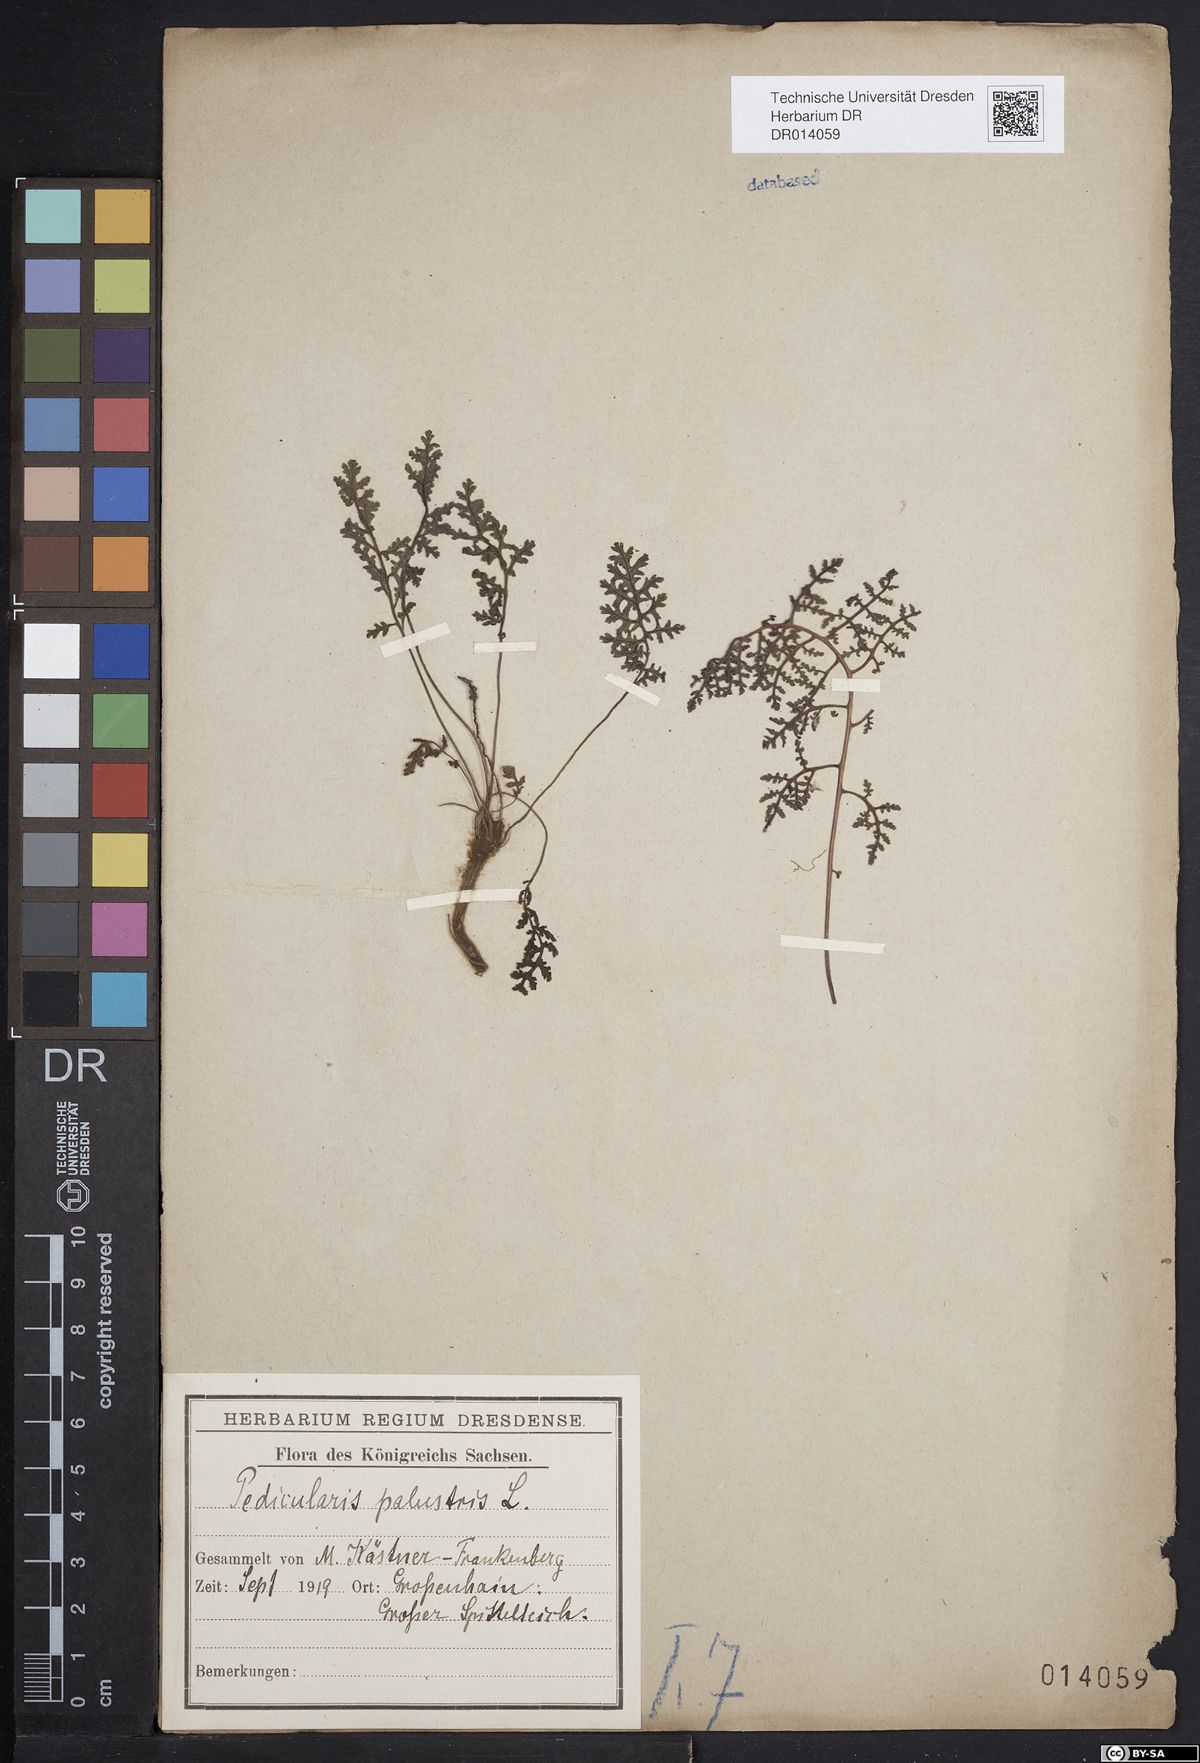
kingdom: Plantae
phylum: Tracheophyta
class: Magnoliopsida
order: Lamiales
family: Orobanchaceae
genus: Pedicularis
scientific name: Pedicularis palustris
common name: Marsh lousewort
